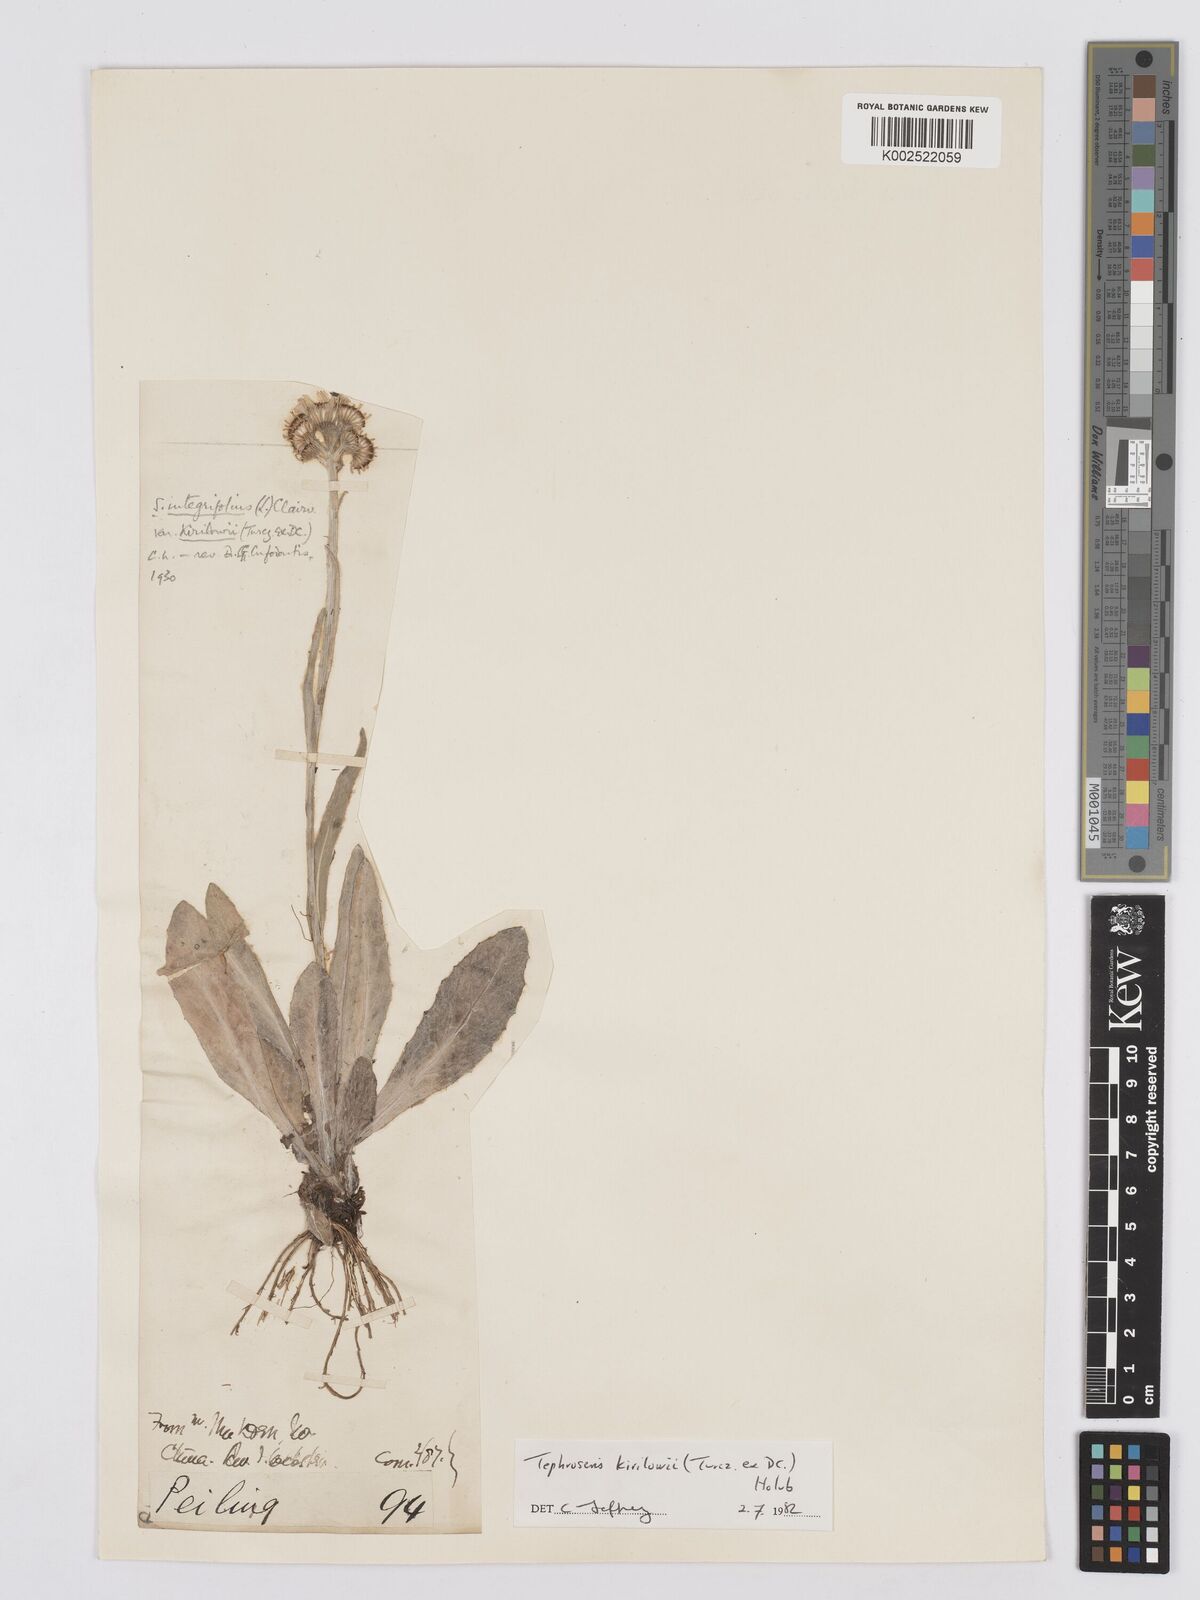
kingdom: Plantae
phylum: Tracheophyta
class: Magnoliopsida
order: Asterales
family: Asteraceae
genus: Tephroseris
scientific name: Tephroseris kirilowii
